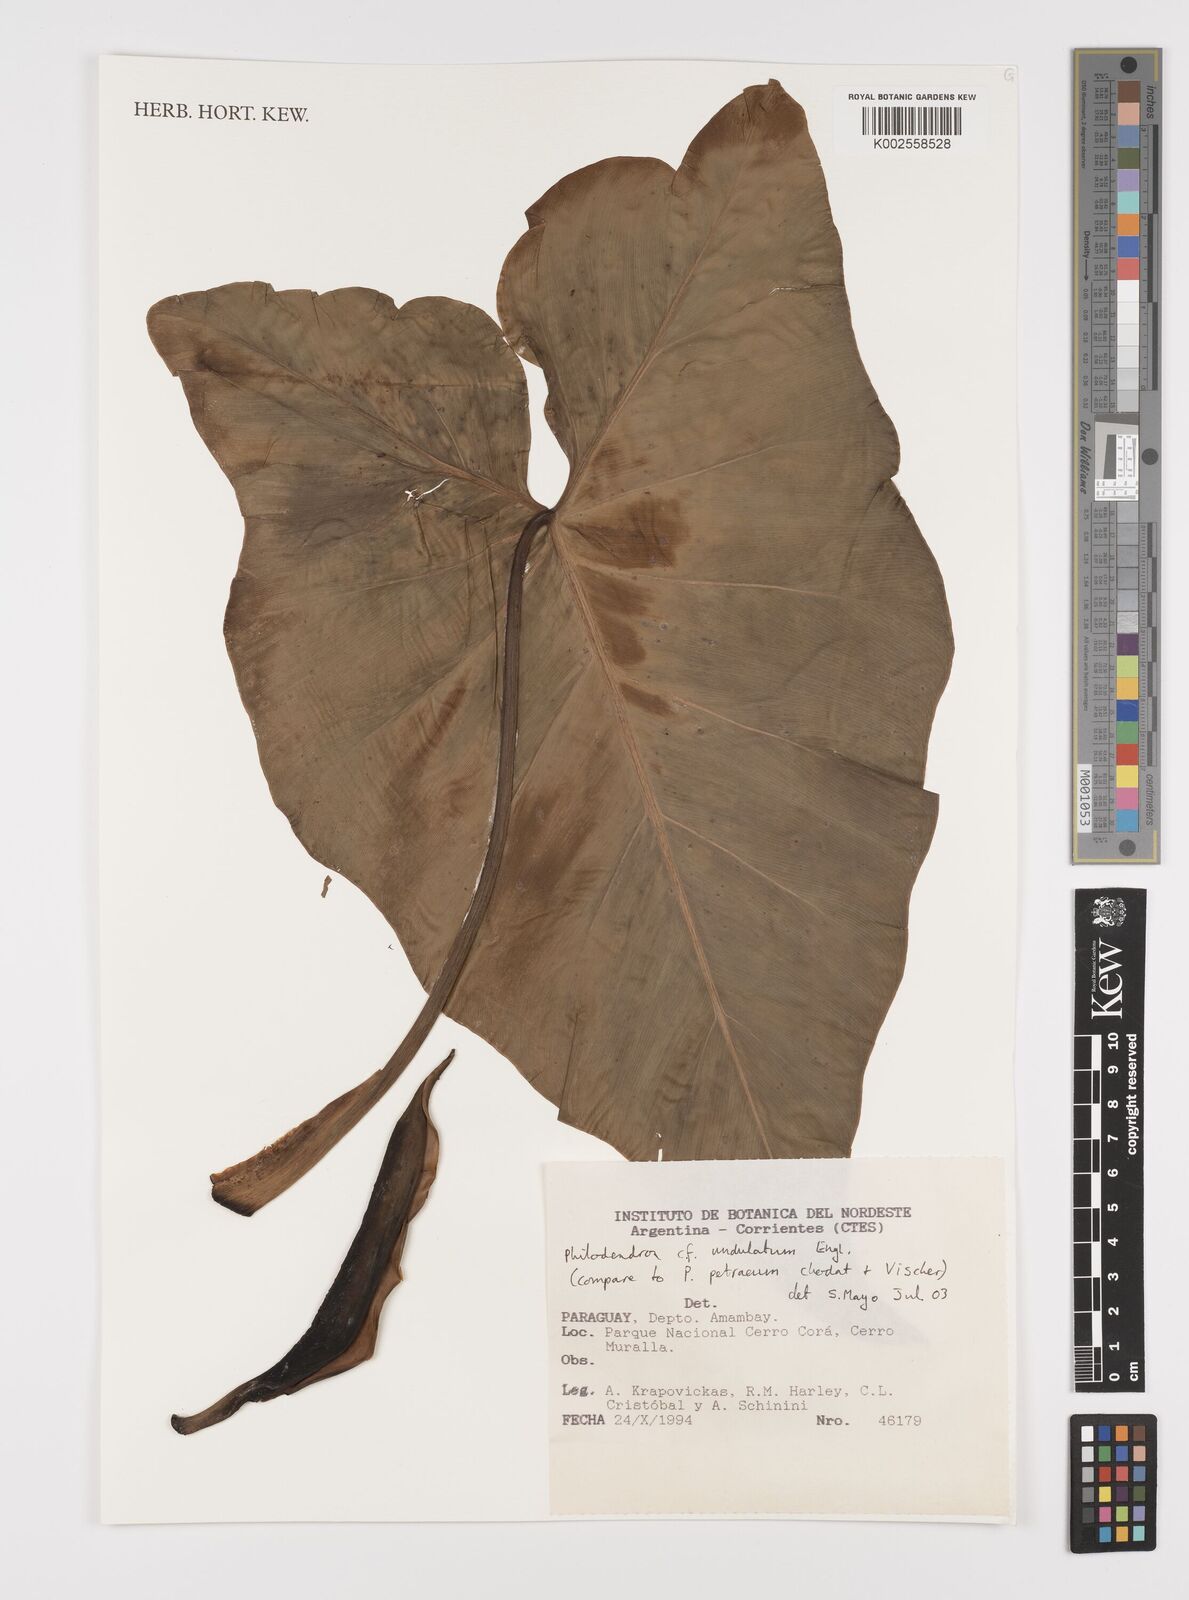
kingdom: Plantae
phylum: Tracheophyta
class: Liliopsida
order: Alismatales
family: Araceae
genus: Thaumatophyllum
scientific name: Thaumatophyllum undulatum
